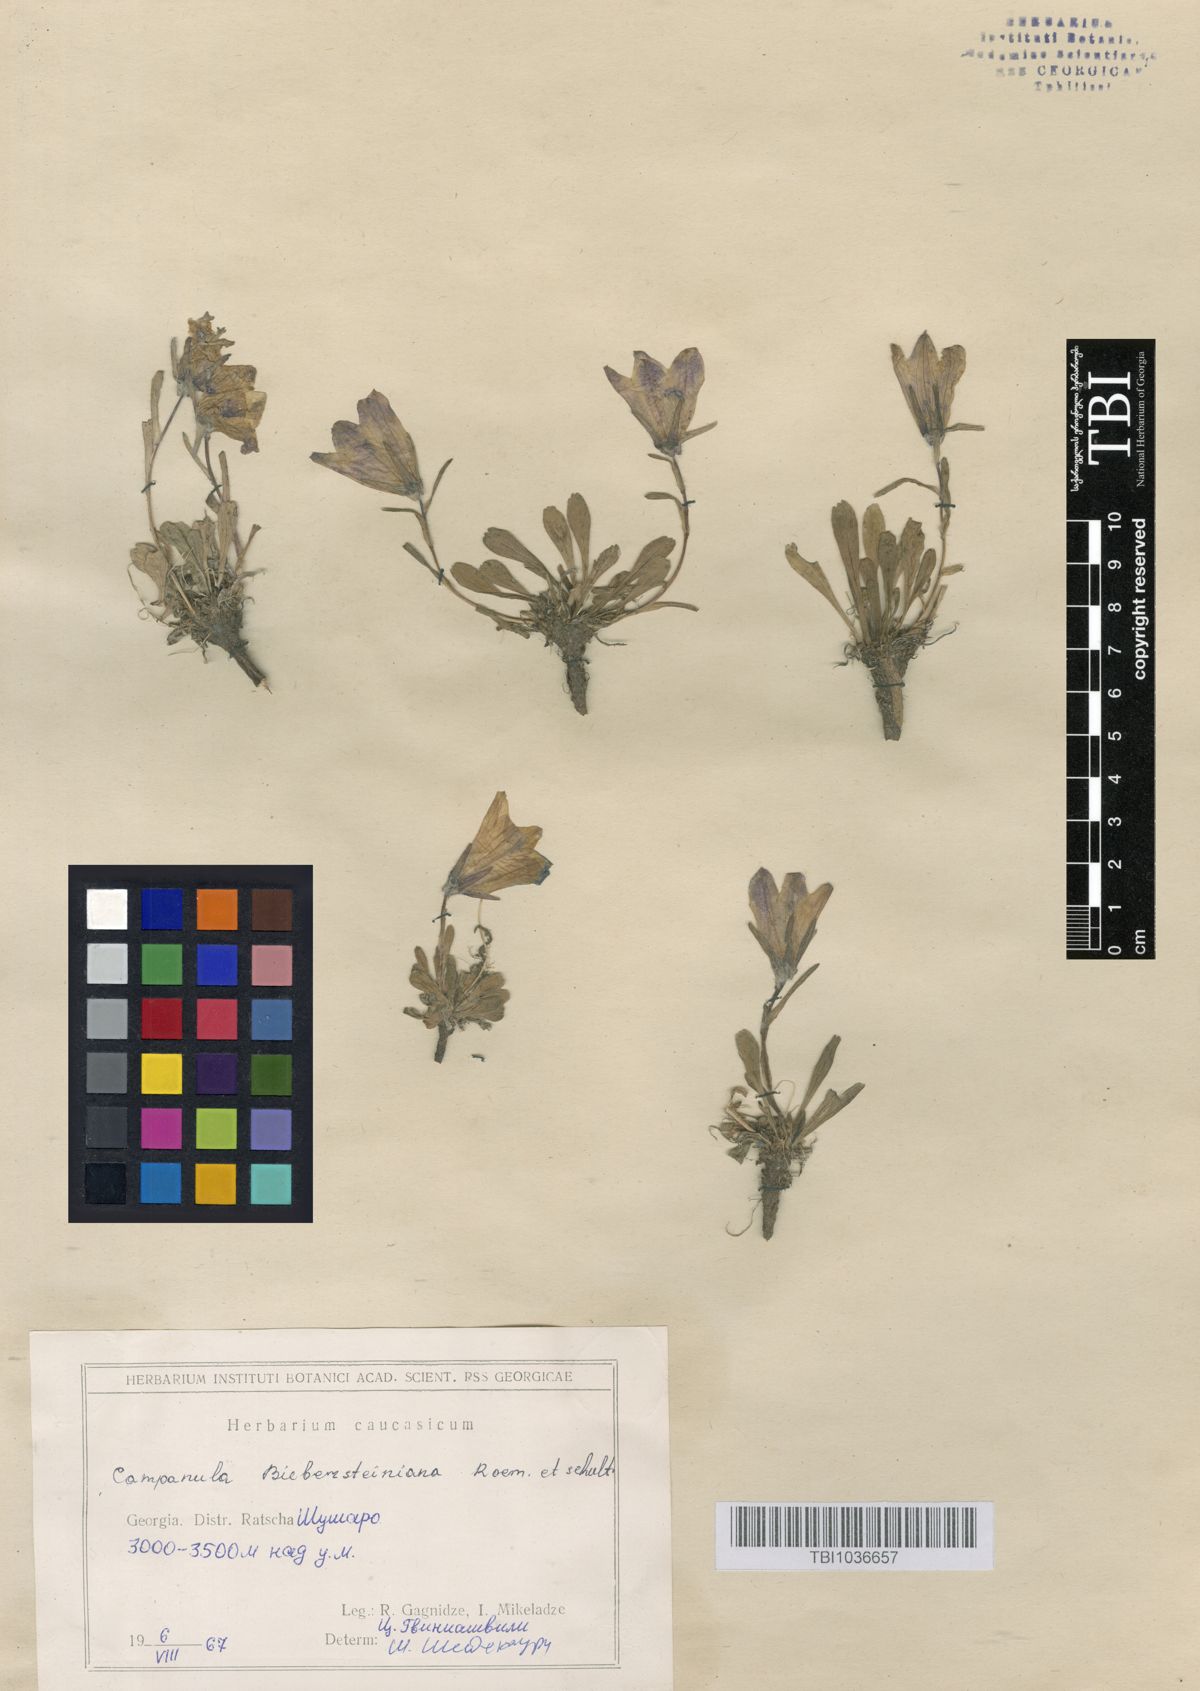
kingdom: Plantae
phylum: Tracheophyta
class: Magnoliopsida
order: Asterales
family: Campanulaceae
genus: Campanula
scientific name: Campanula tridentata
